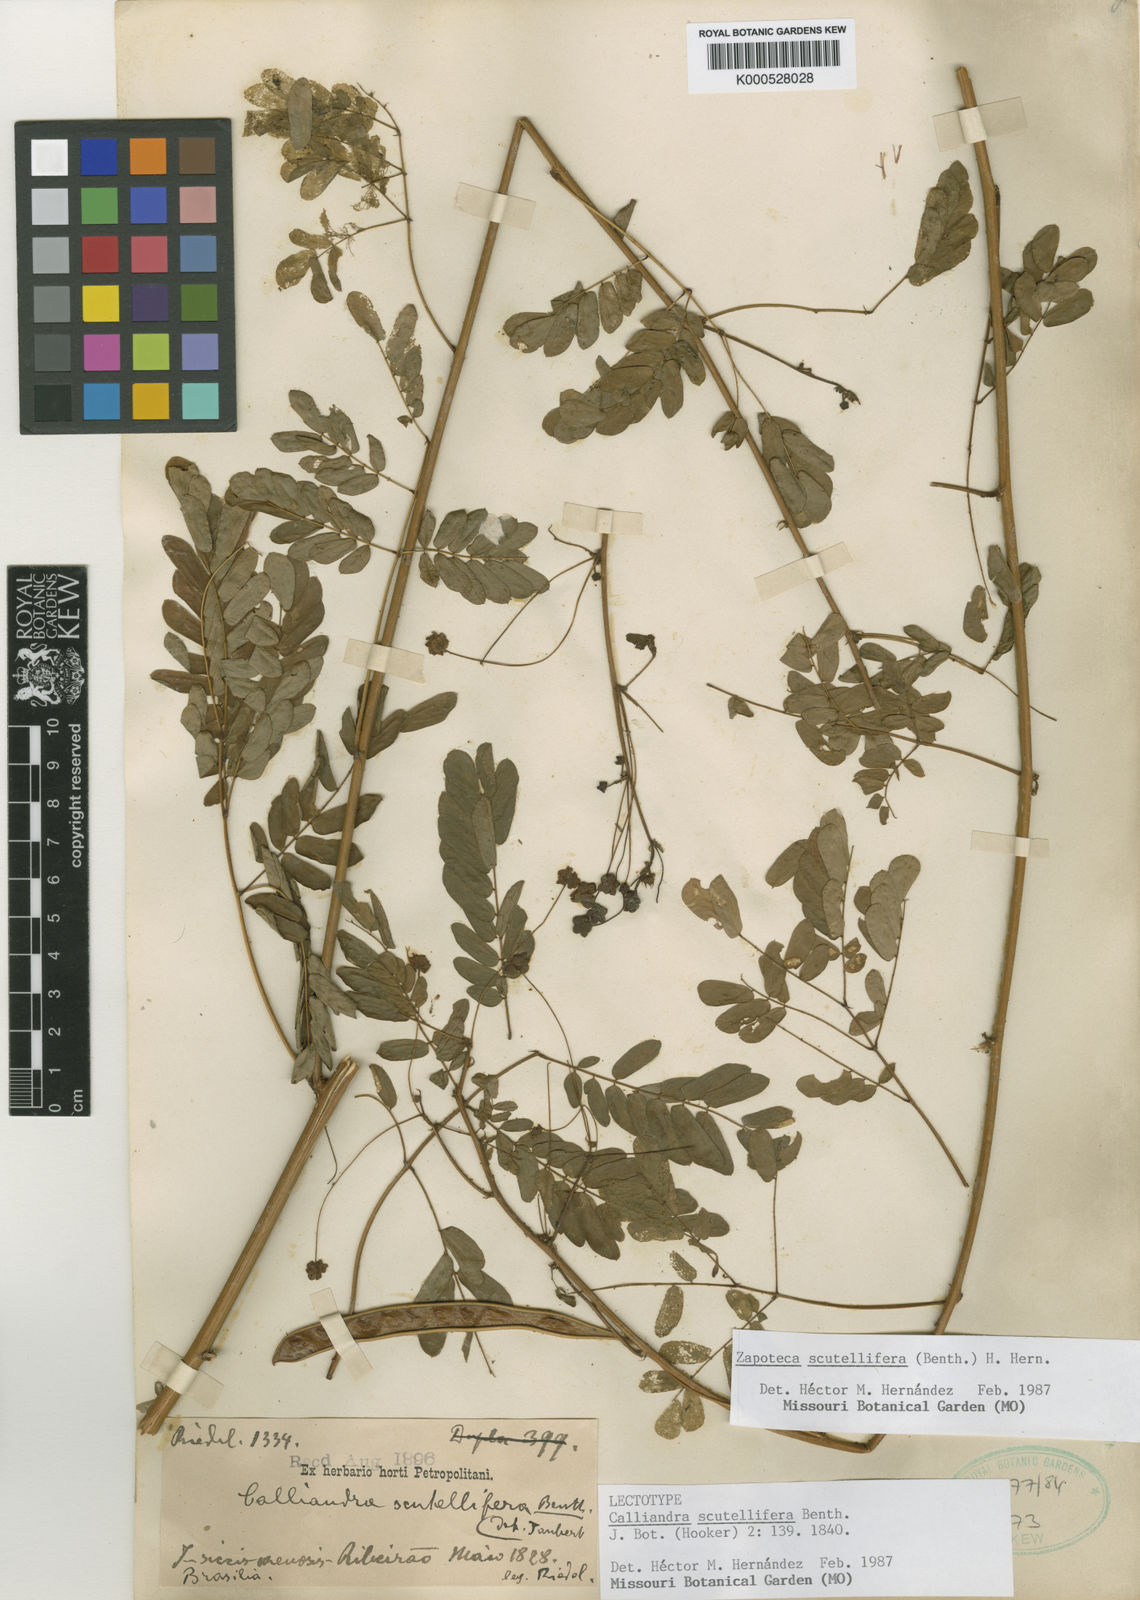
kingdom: Plantae
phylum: Tracheophyta
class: Magnoliopsida
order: Fabales
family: Fabaceae
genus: Zapoteca
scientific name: Zapoteca scutellifera
